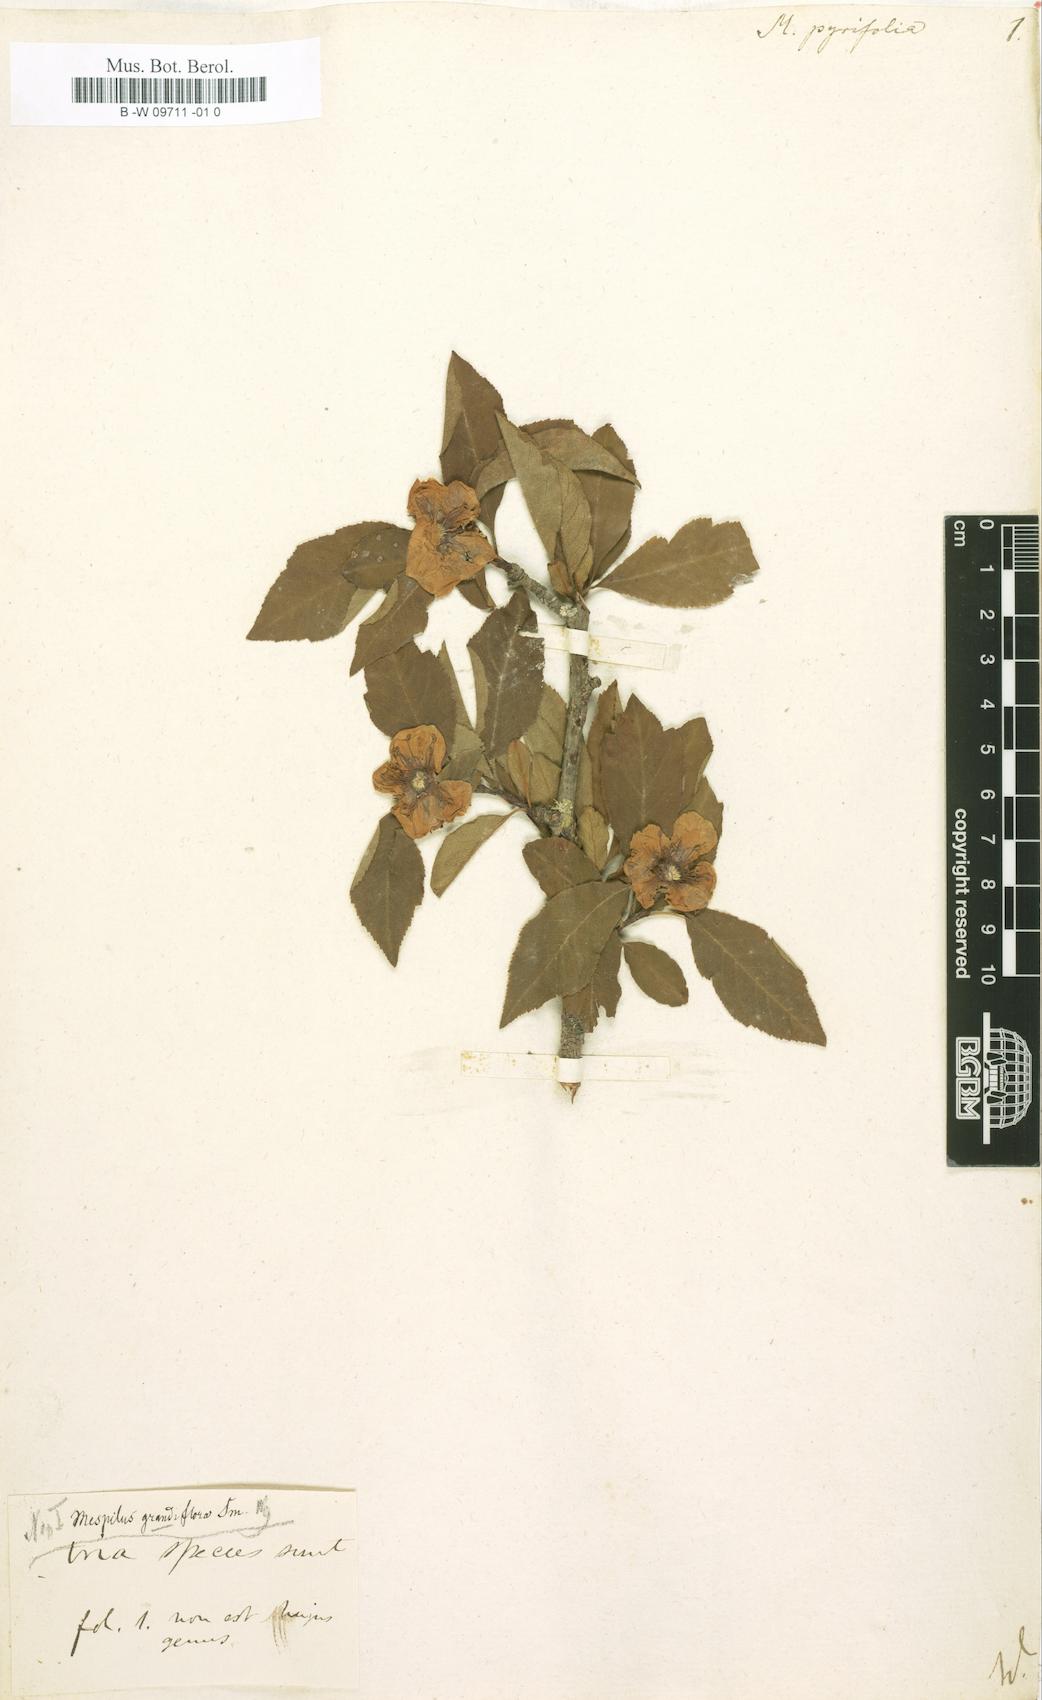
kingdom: Plantae
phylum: Tracheophyta
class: Magnoliopsida
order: Rosales
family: Rosaceae
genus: Crataegus
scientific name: Crataegus
